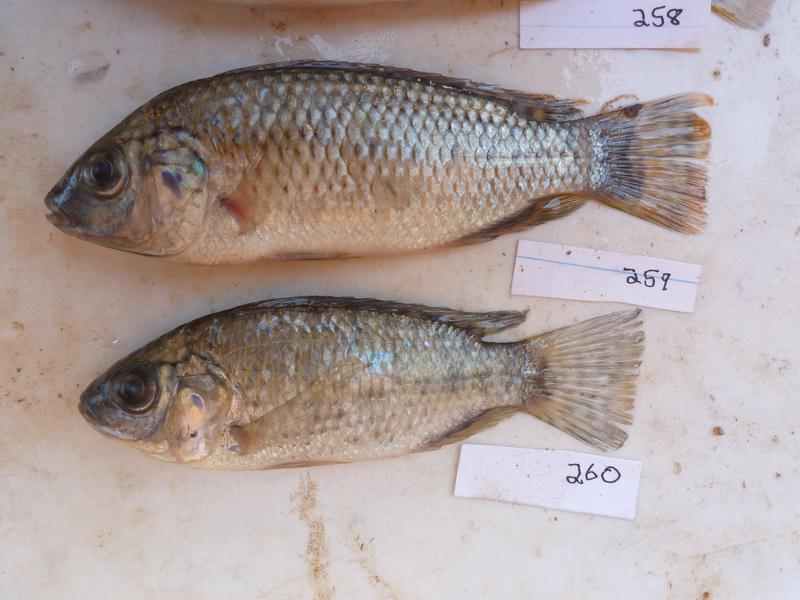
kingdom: Animalia
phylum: Chordata
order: Perciformes
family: Cichlidae
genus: Oreochromis
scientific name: Oreochromis
